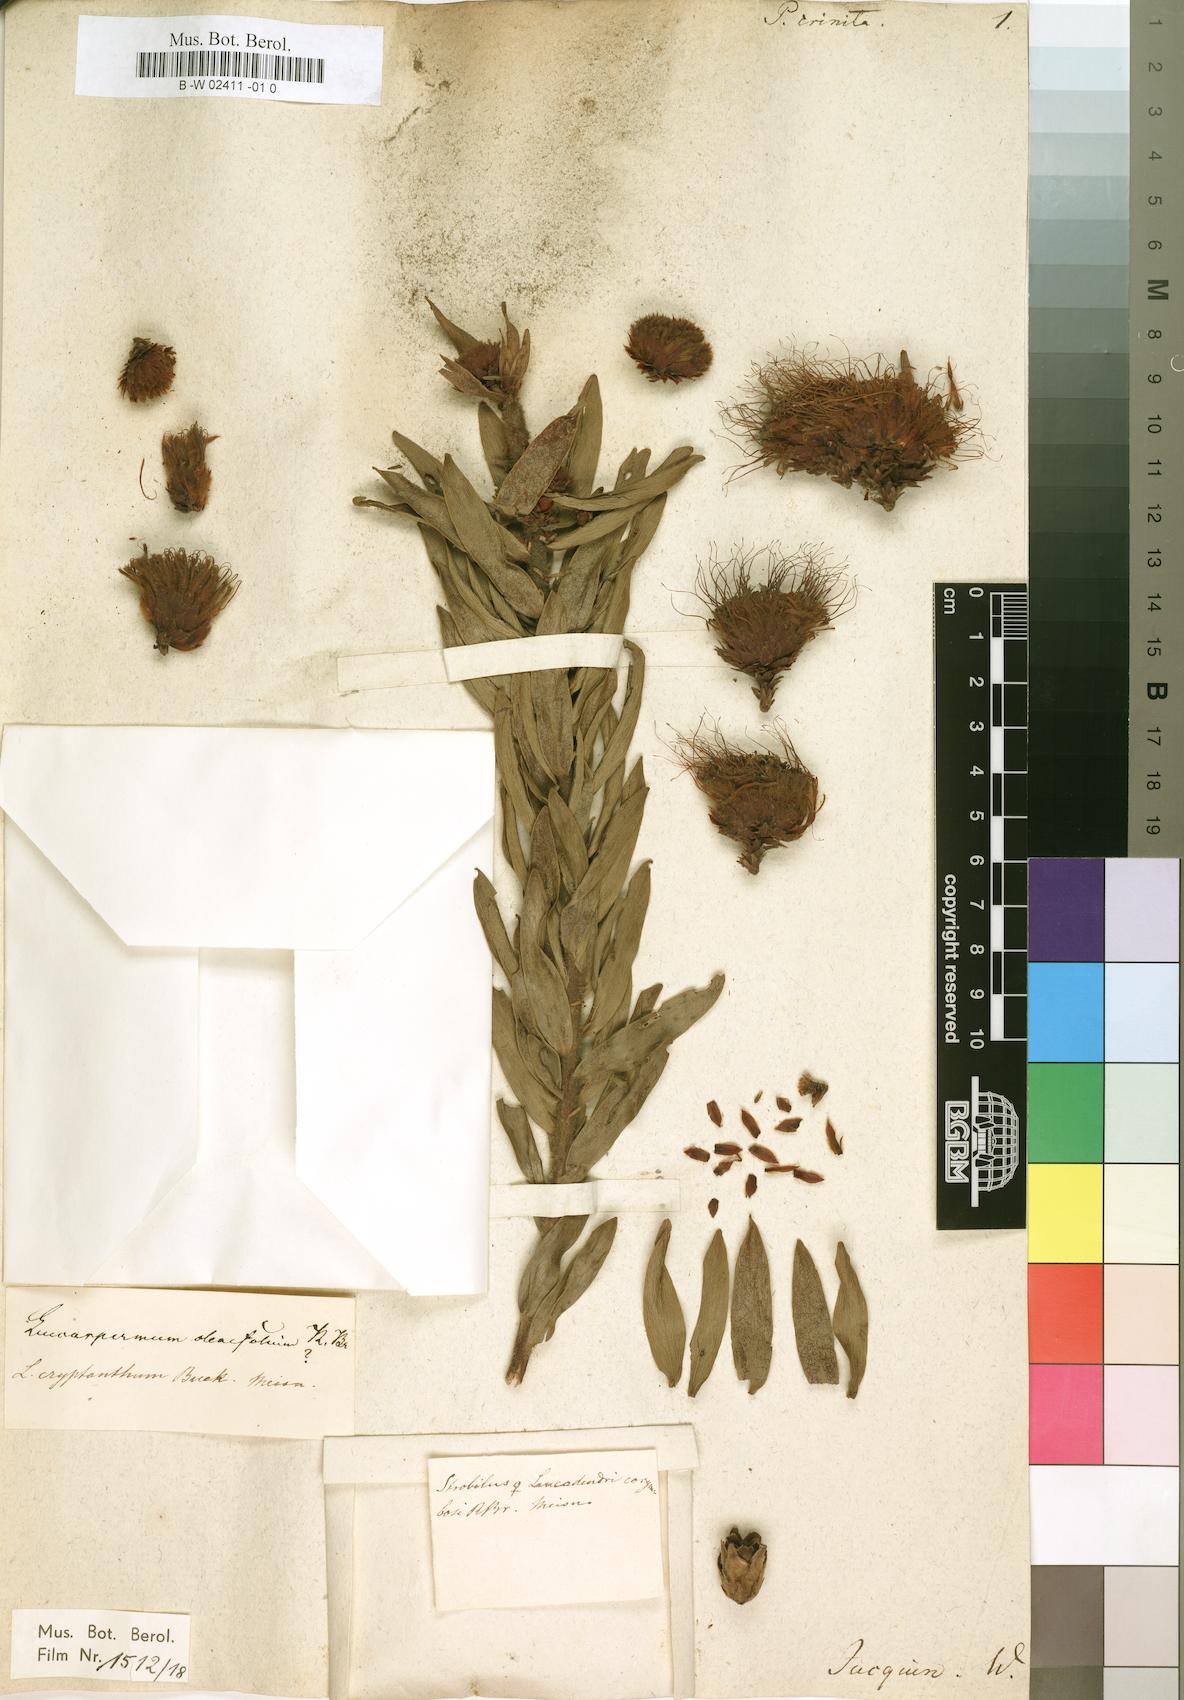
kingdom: Plantae
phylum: Tracheophyta
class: Magnoliopsida
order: Proteales
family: Proteaceae
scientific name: Proteaceae
